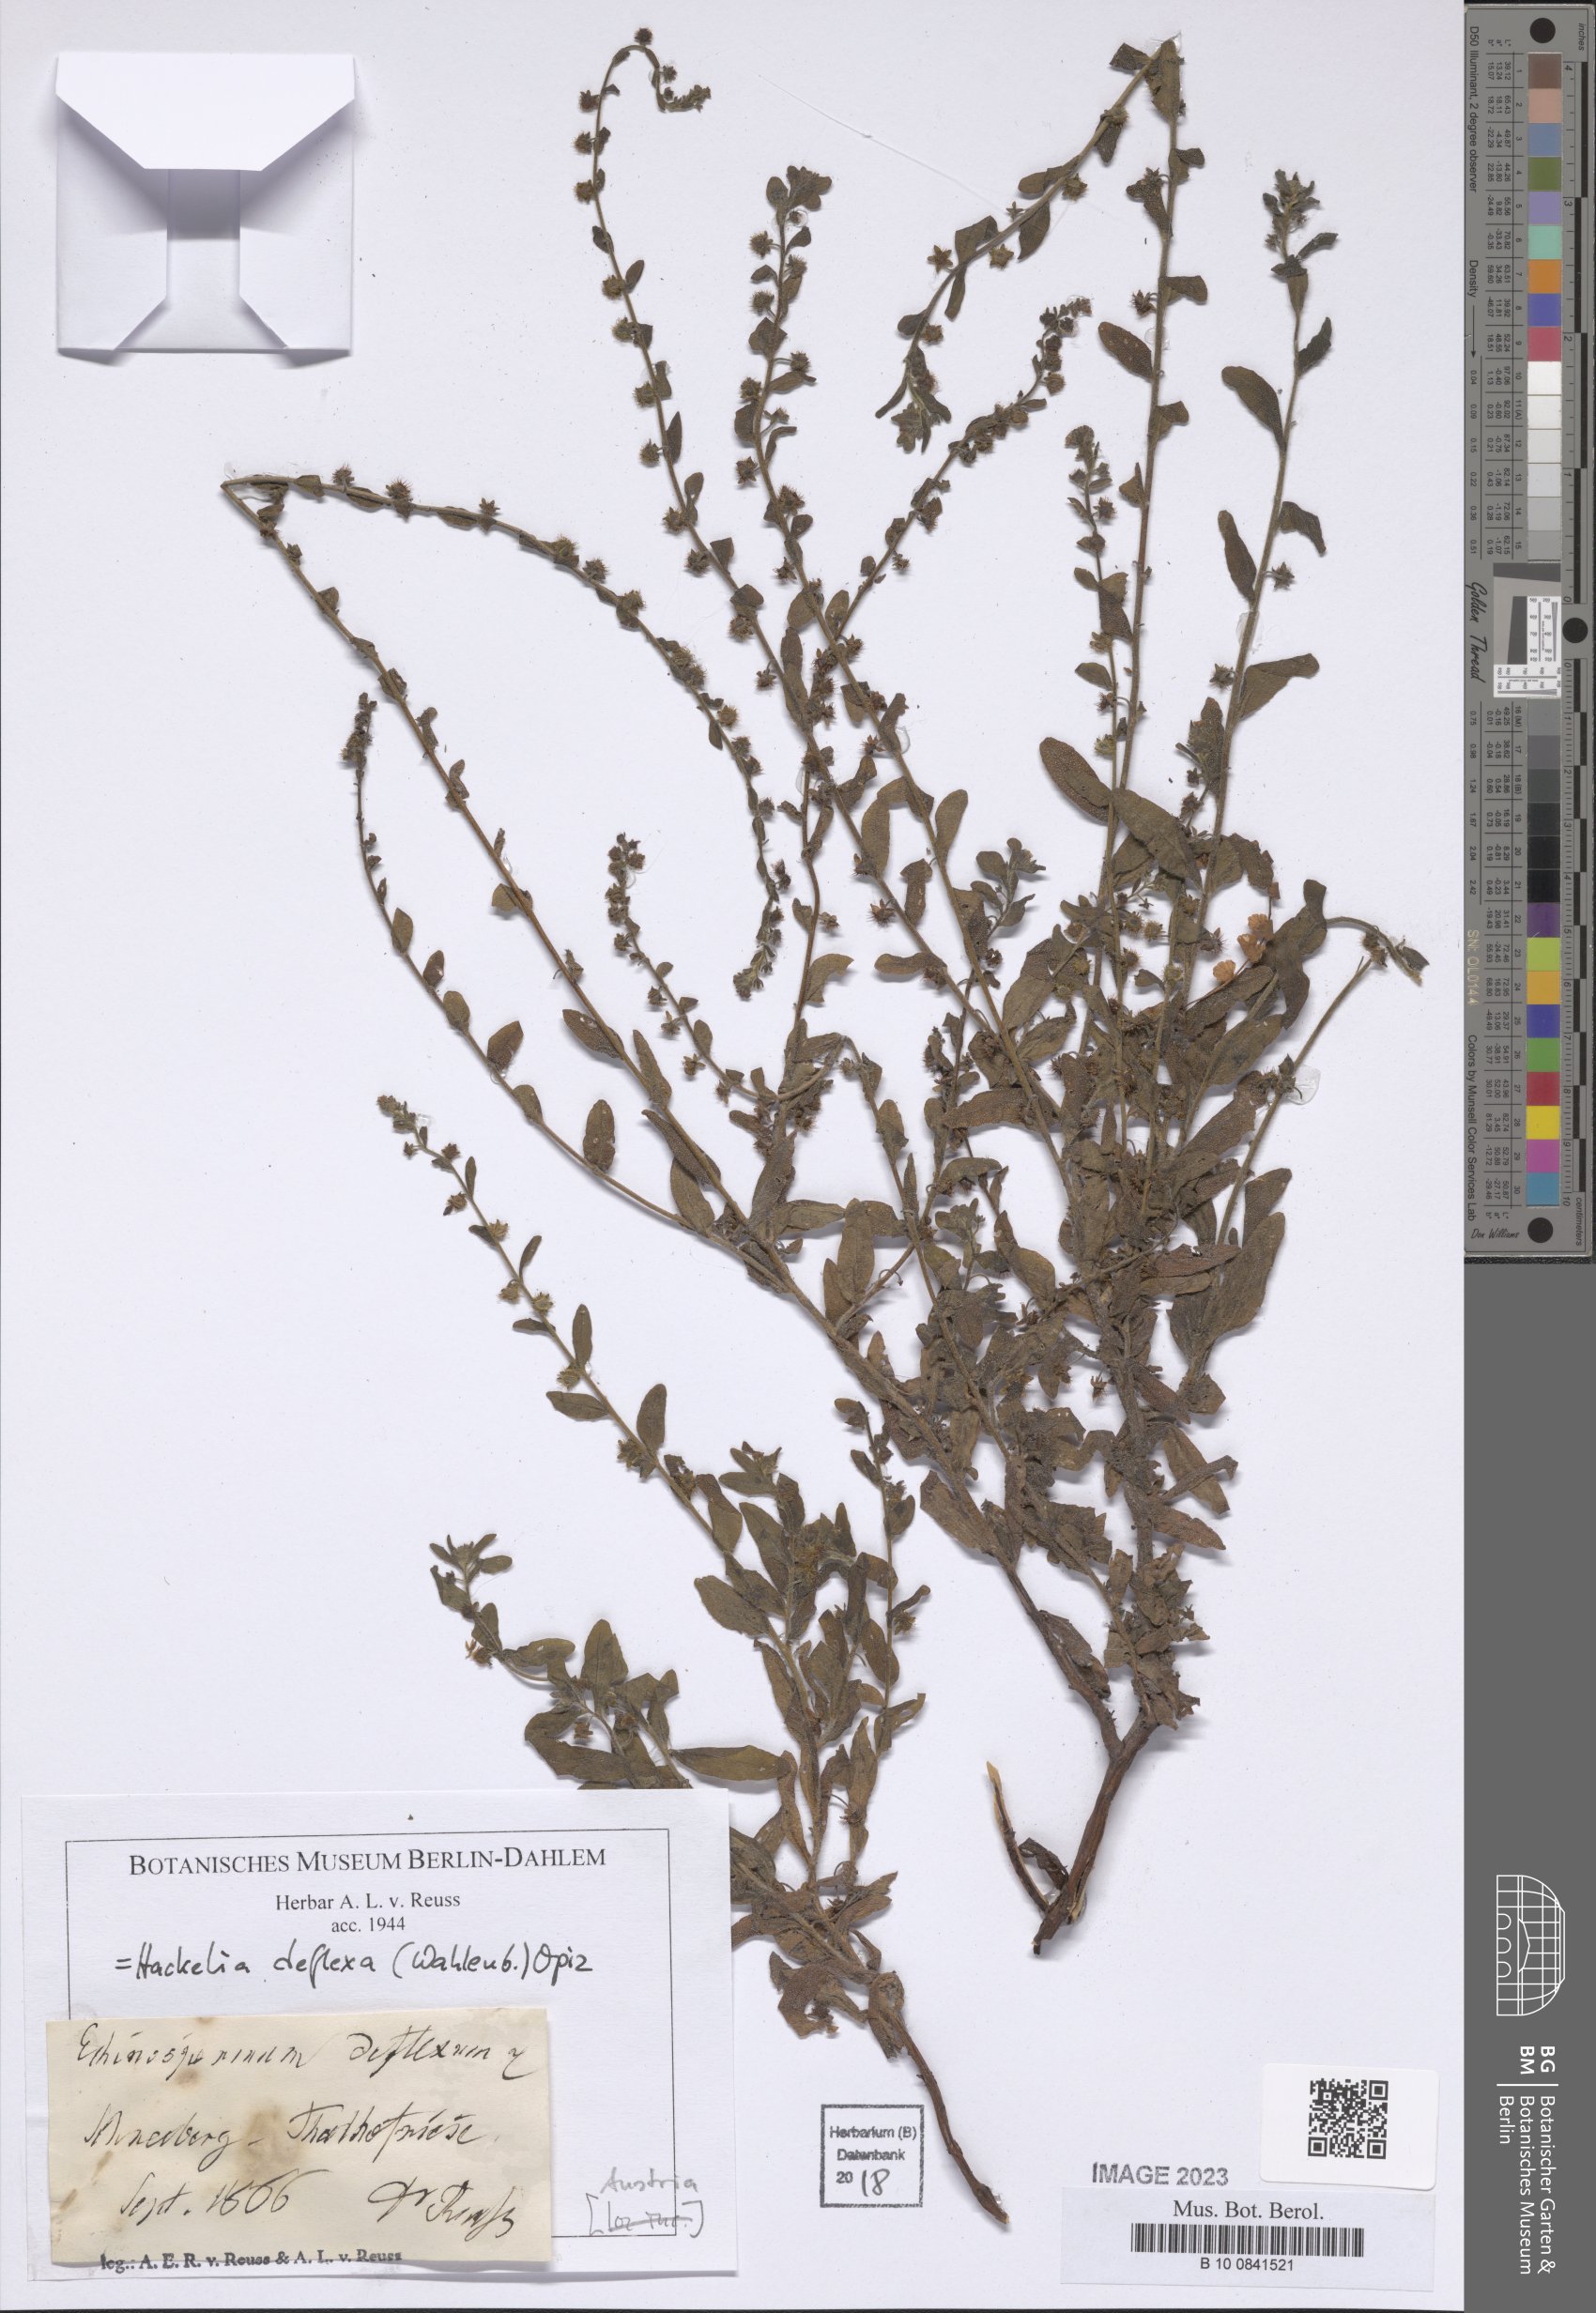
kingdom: Plantae
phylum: Tracheophyta
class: Magnoliopsida
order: Boraginales
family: Boraginaceae
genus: Hackelia
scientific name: Hackelia deflexa
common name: Nodding stickseed
